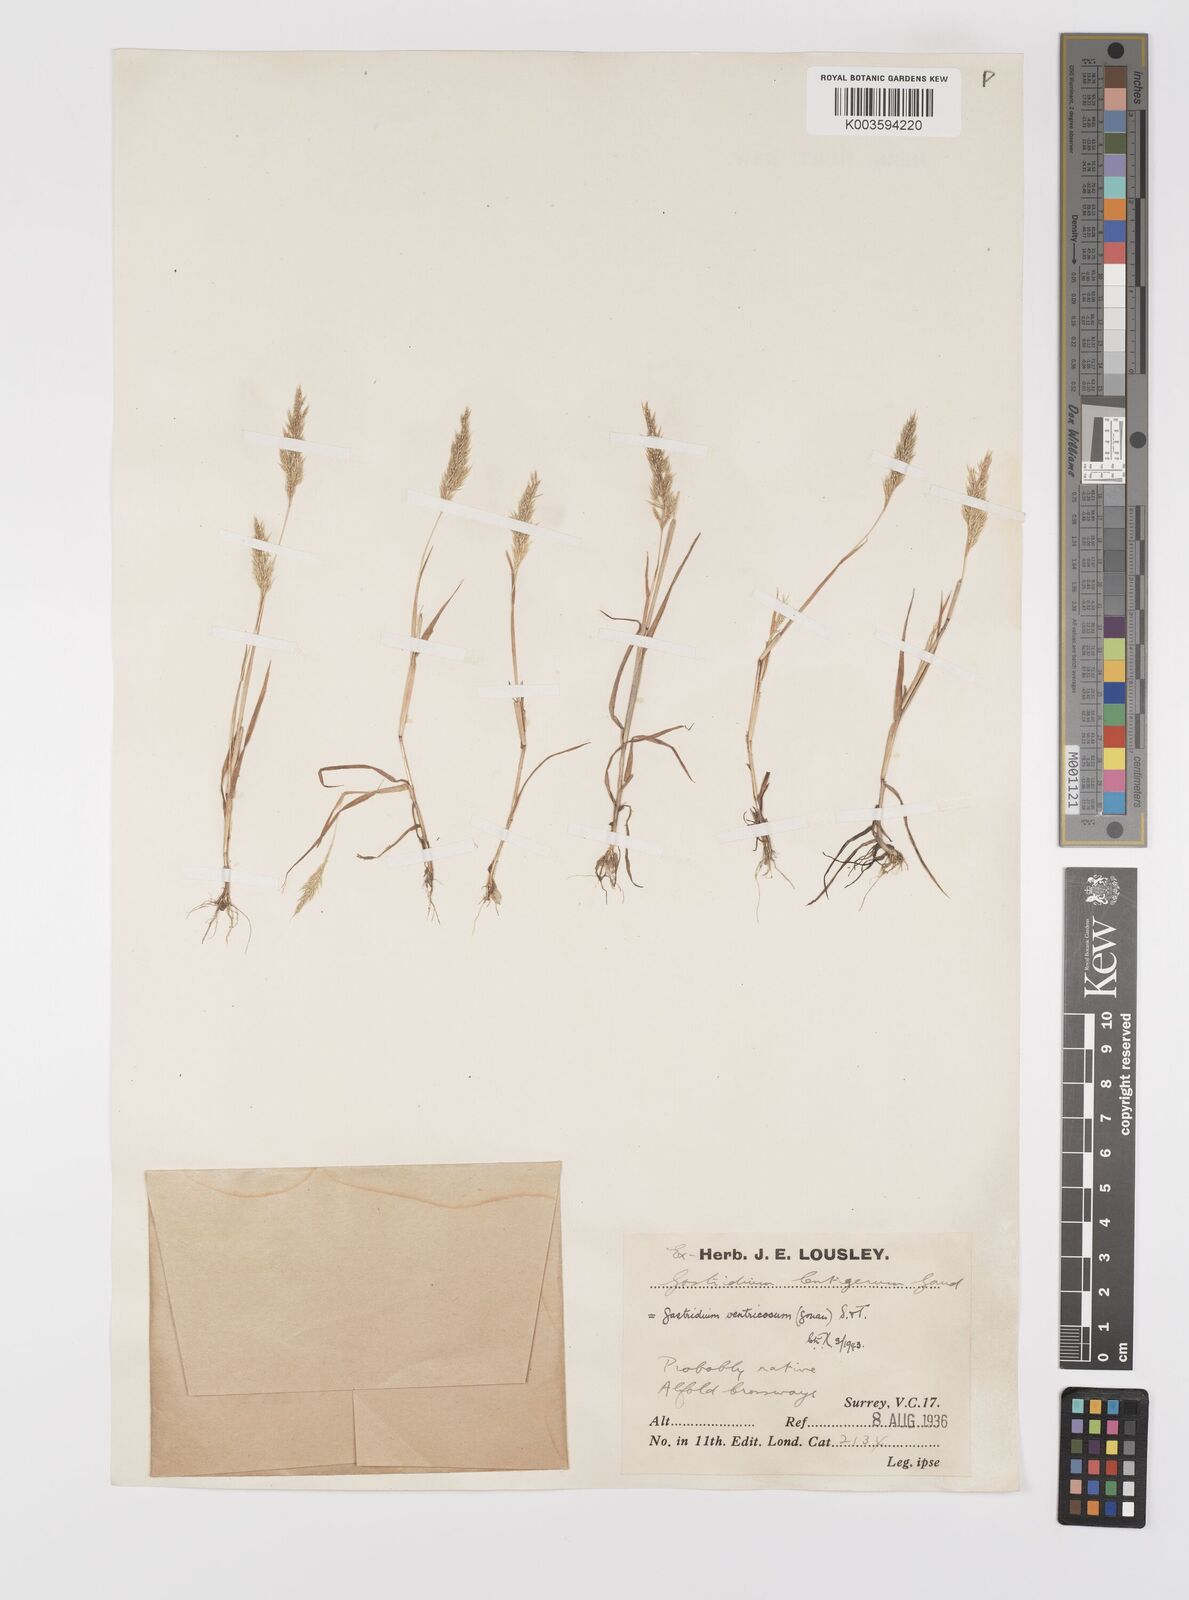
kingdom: Plantae
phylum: Tracheophyta
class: Liliopsida
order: Poales
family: Poaceae
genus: Gastridium
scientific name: Gastridium ventricosum
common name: Nit-grass
